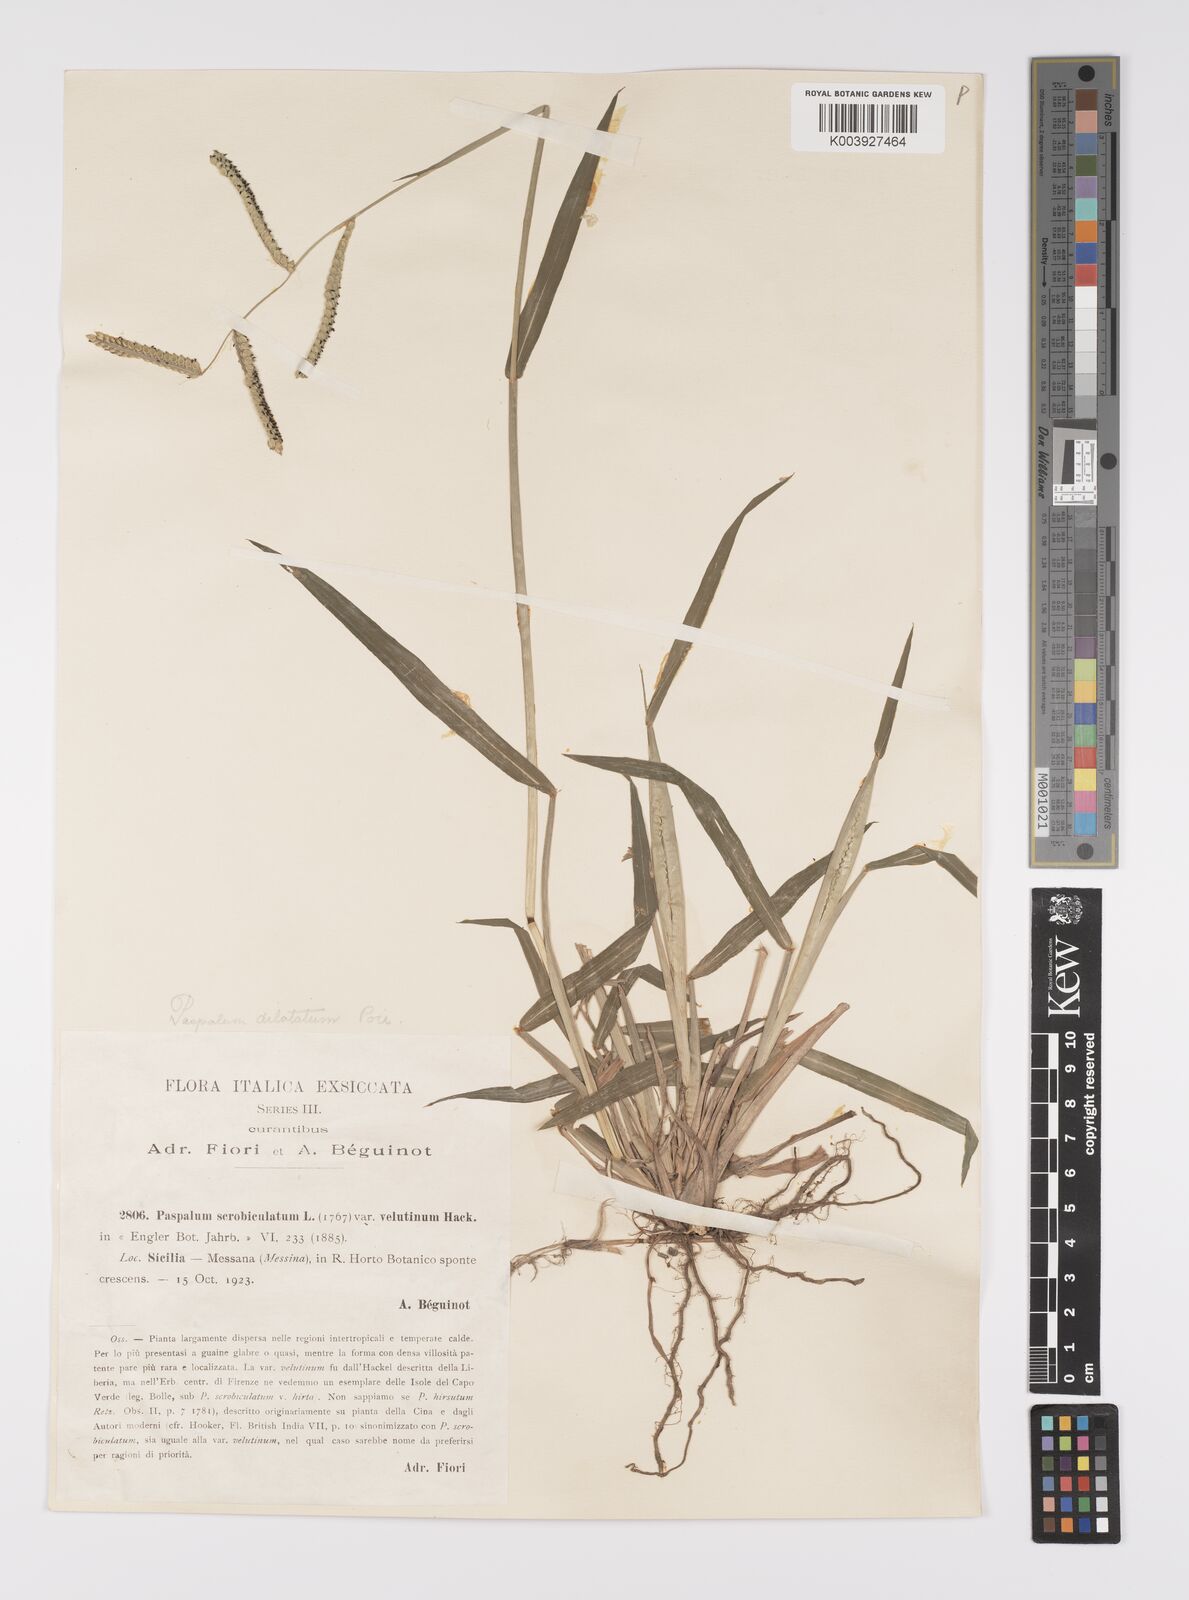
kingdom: Plantae
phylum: Tracheophyta
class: Liliopsida
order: Poales
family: Poaceae
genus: Paspalum
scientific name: Paspalum dilatatum
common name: Dallisgrass
